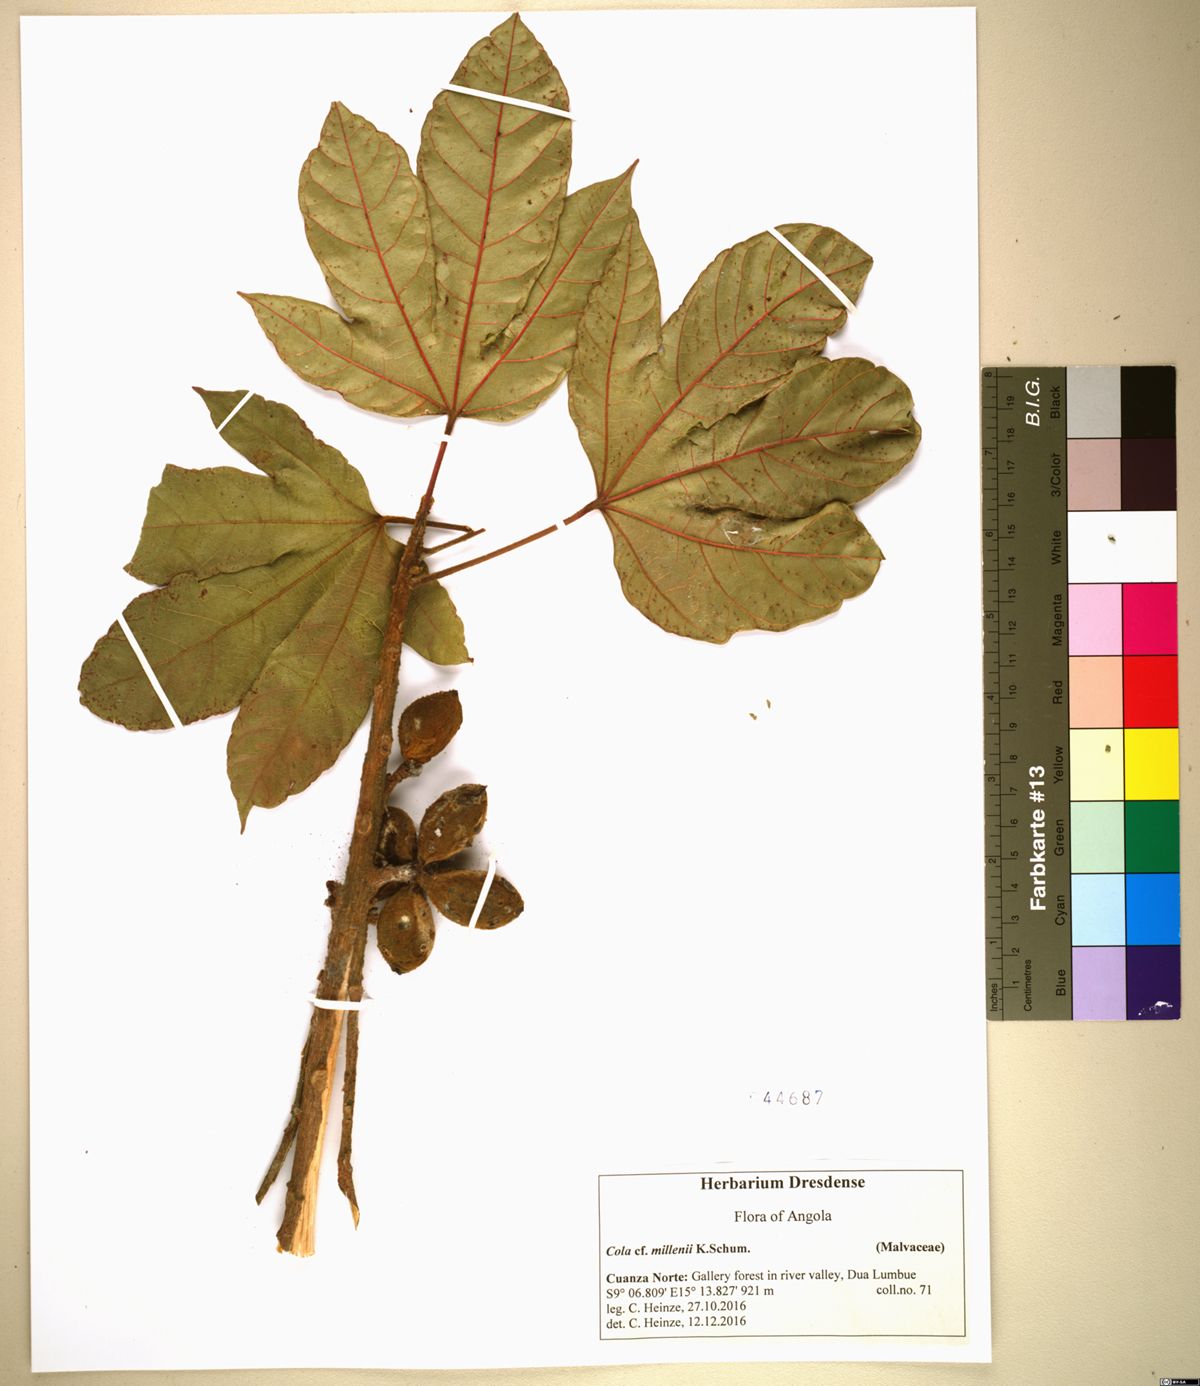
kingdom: Plantae
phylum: Tracheophyta
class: Magnoliopsida
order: Malvales
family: Malvaceae
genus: Cola
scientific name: Cola millenii
